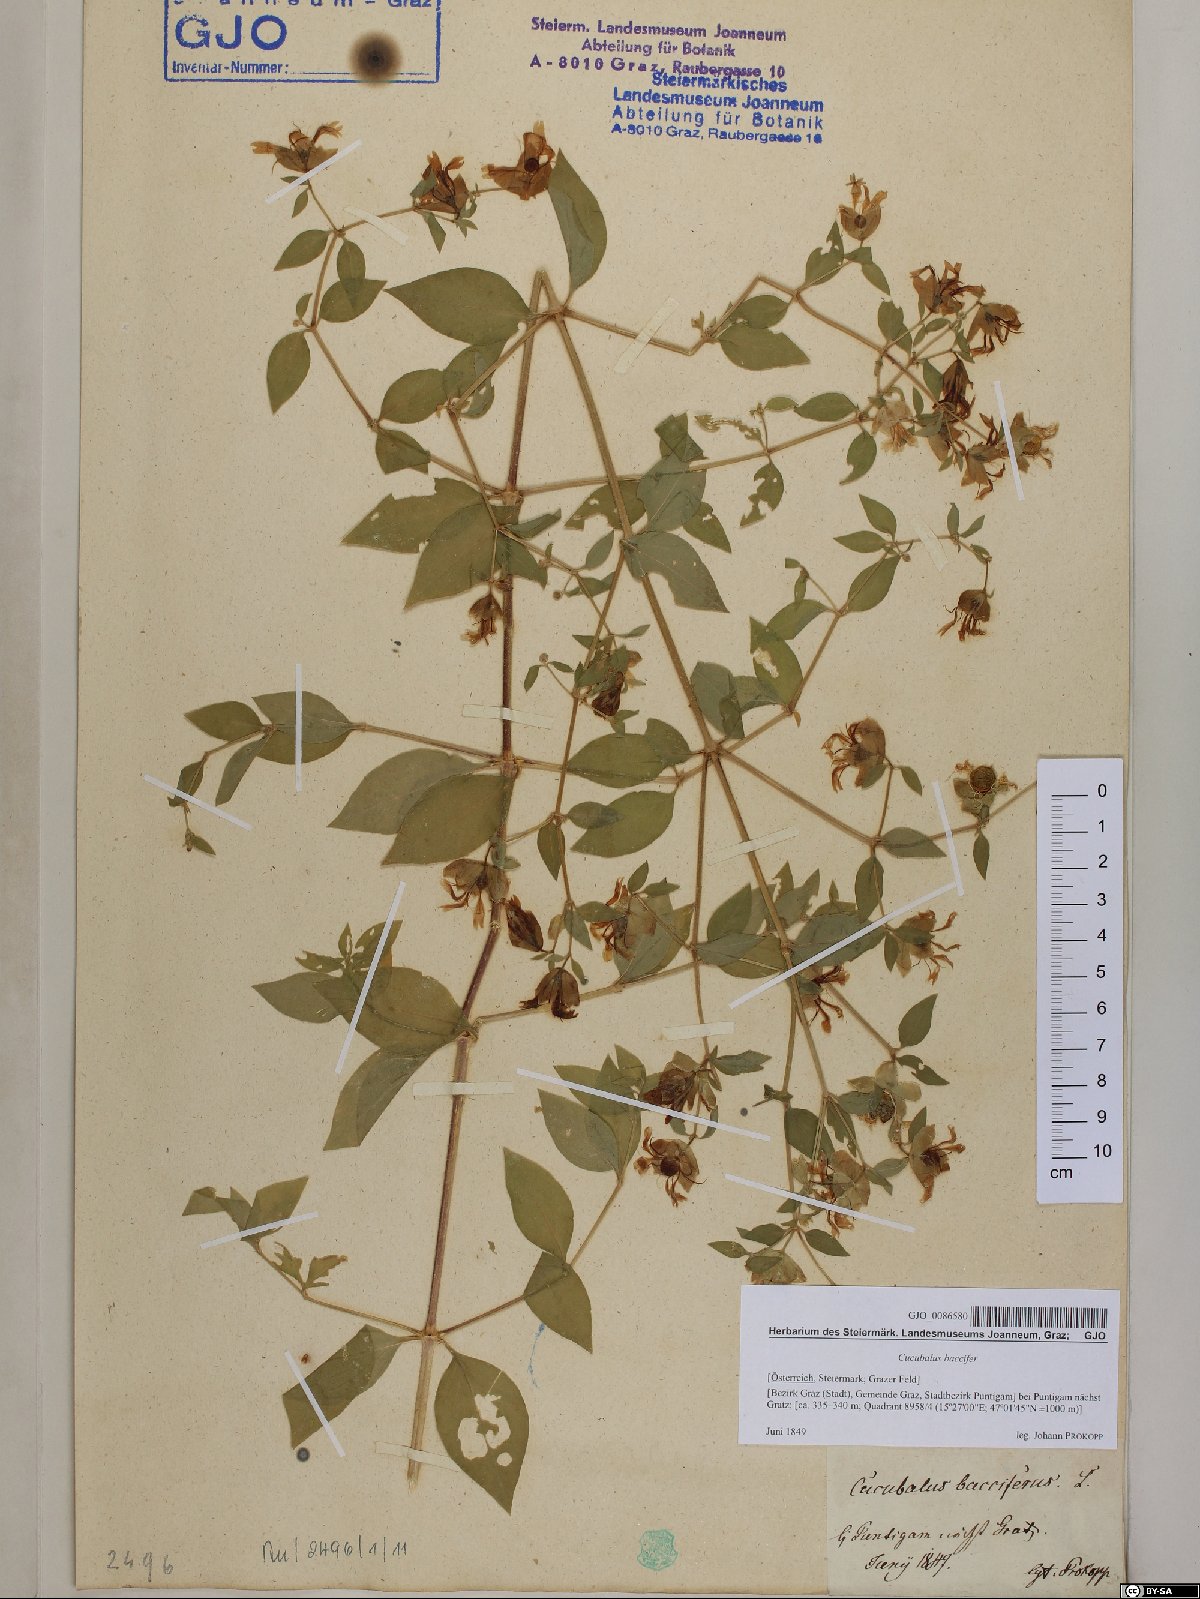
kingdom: Plantae
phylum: Tracheophyta
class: Magnoliopsida
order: Caryophyllales
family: Caryophyllaceae
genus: Silene
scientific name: Silene baccifera
